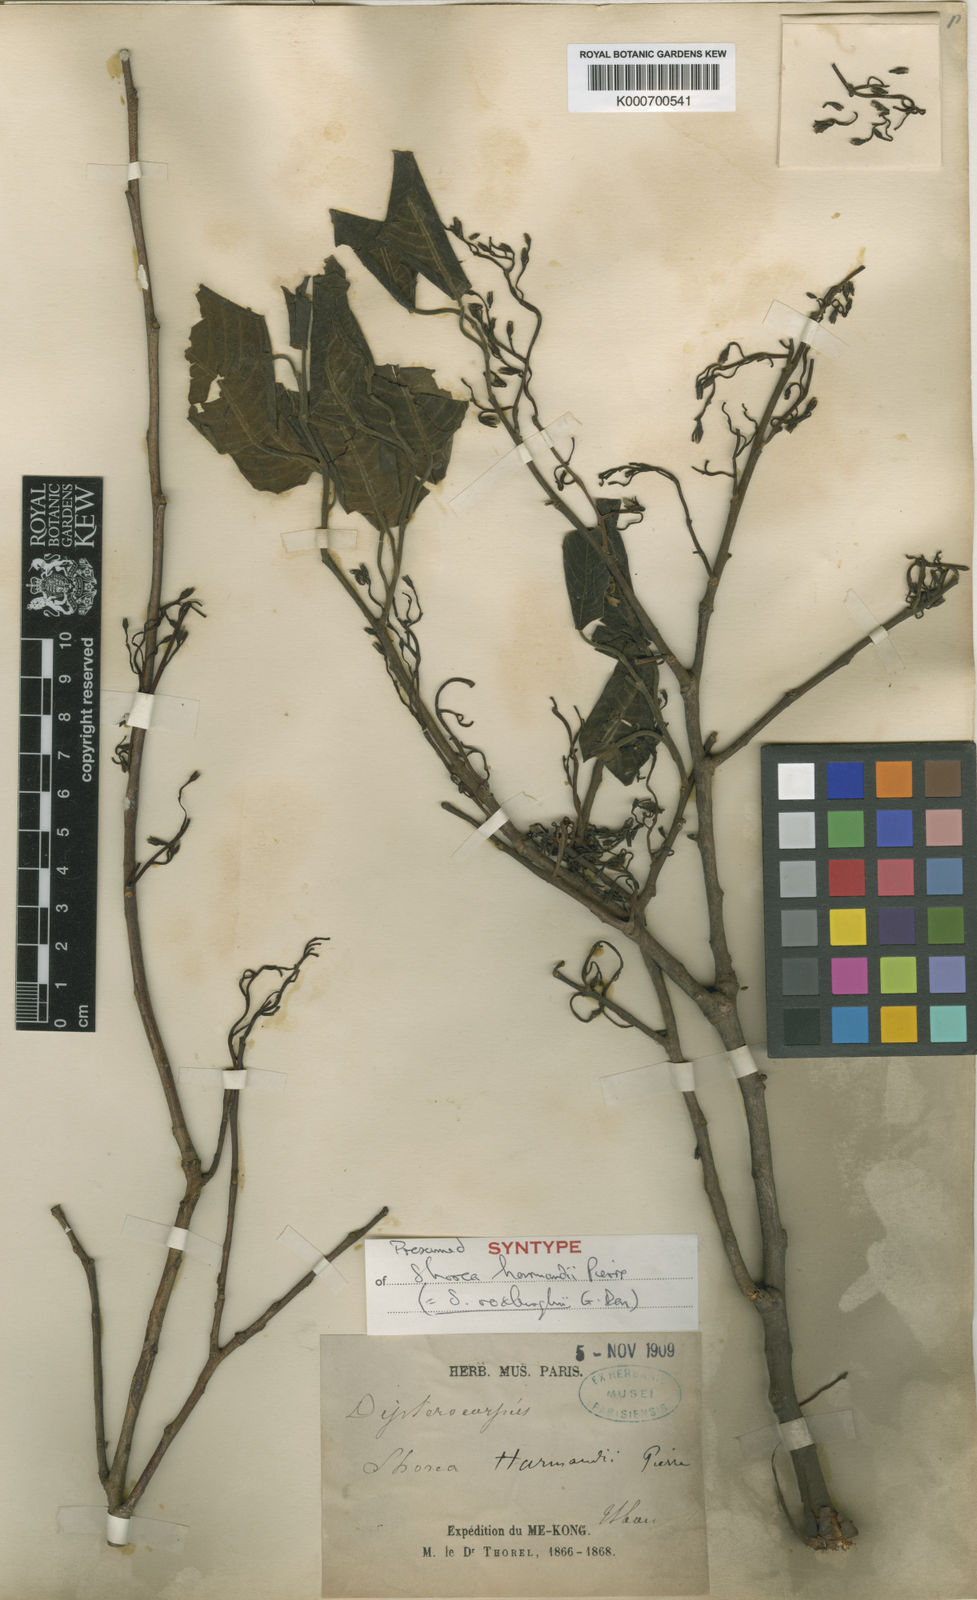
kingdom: Plantae
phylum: Tracheophyta
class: Magnoliopsida
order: Malvales
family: Dipterocarpaceae
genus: Anthoshorea
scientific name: Anthoshorea roxburghii
